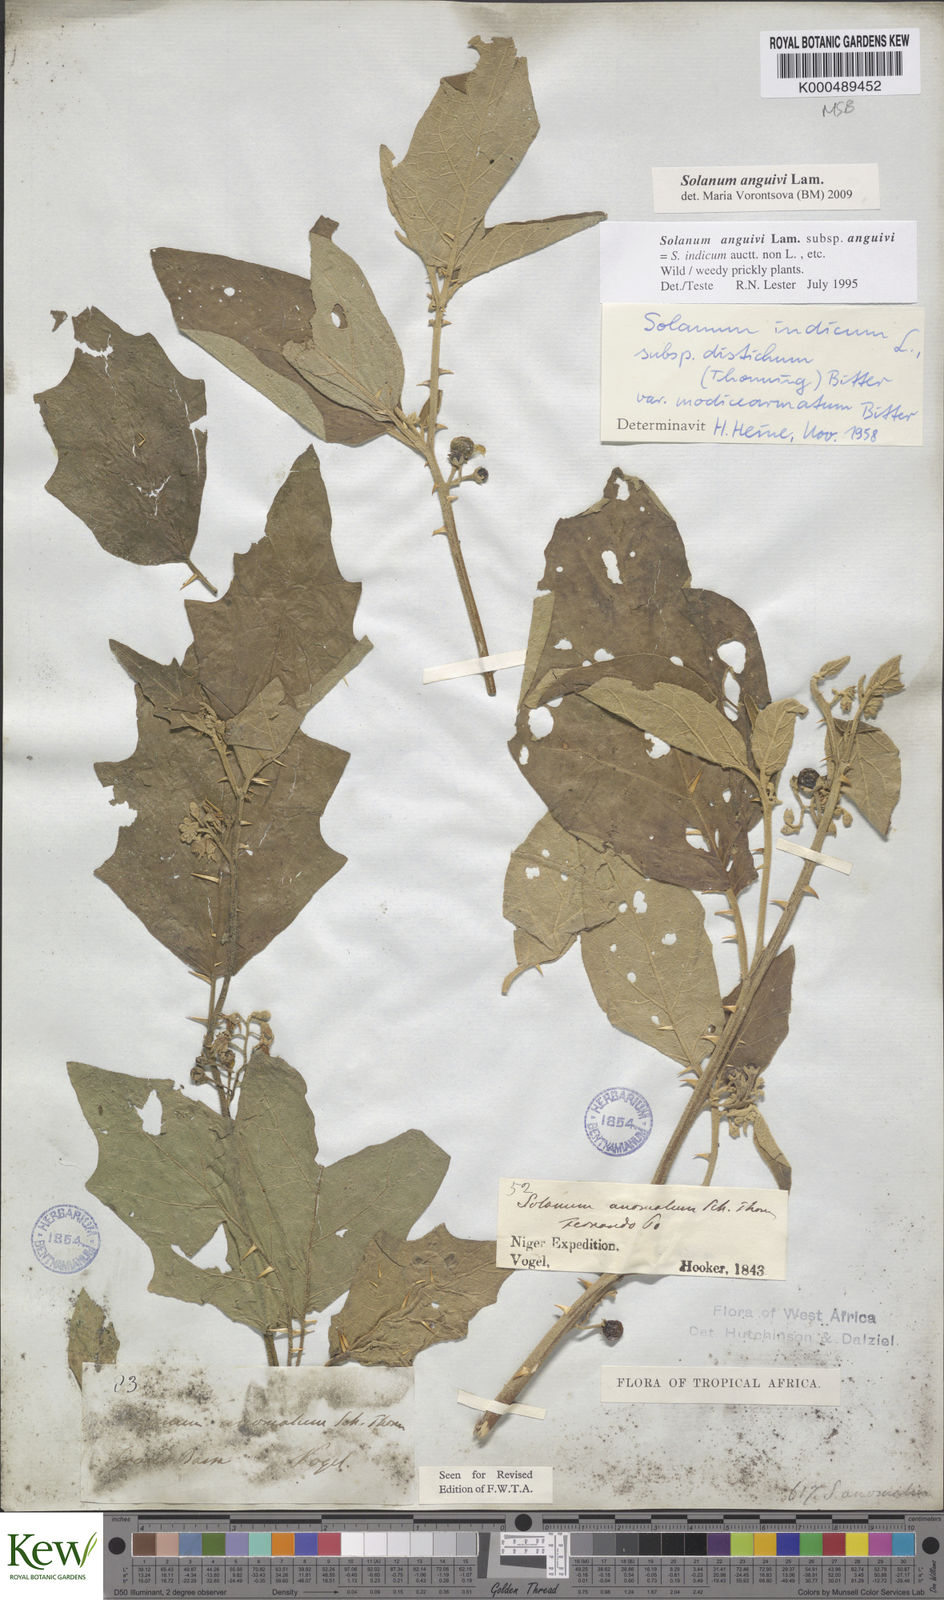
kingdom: Plantae
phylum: Tracheophyta
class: Magnoliopsida
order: Solanales
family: Solanaceae
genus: Solanum
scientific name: Solanum anguivi
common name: Forest bitterberry
